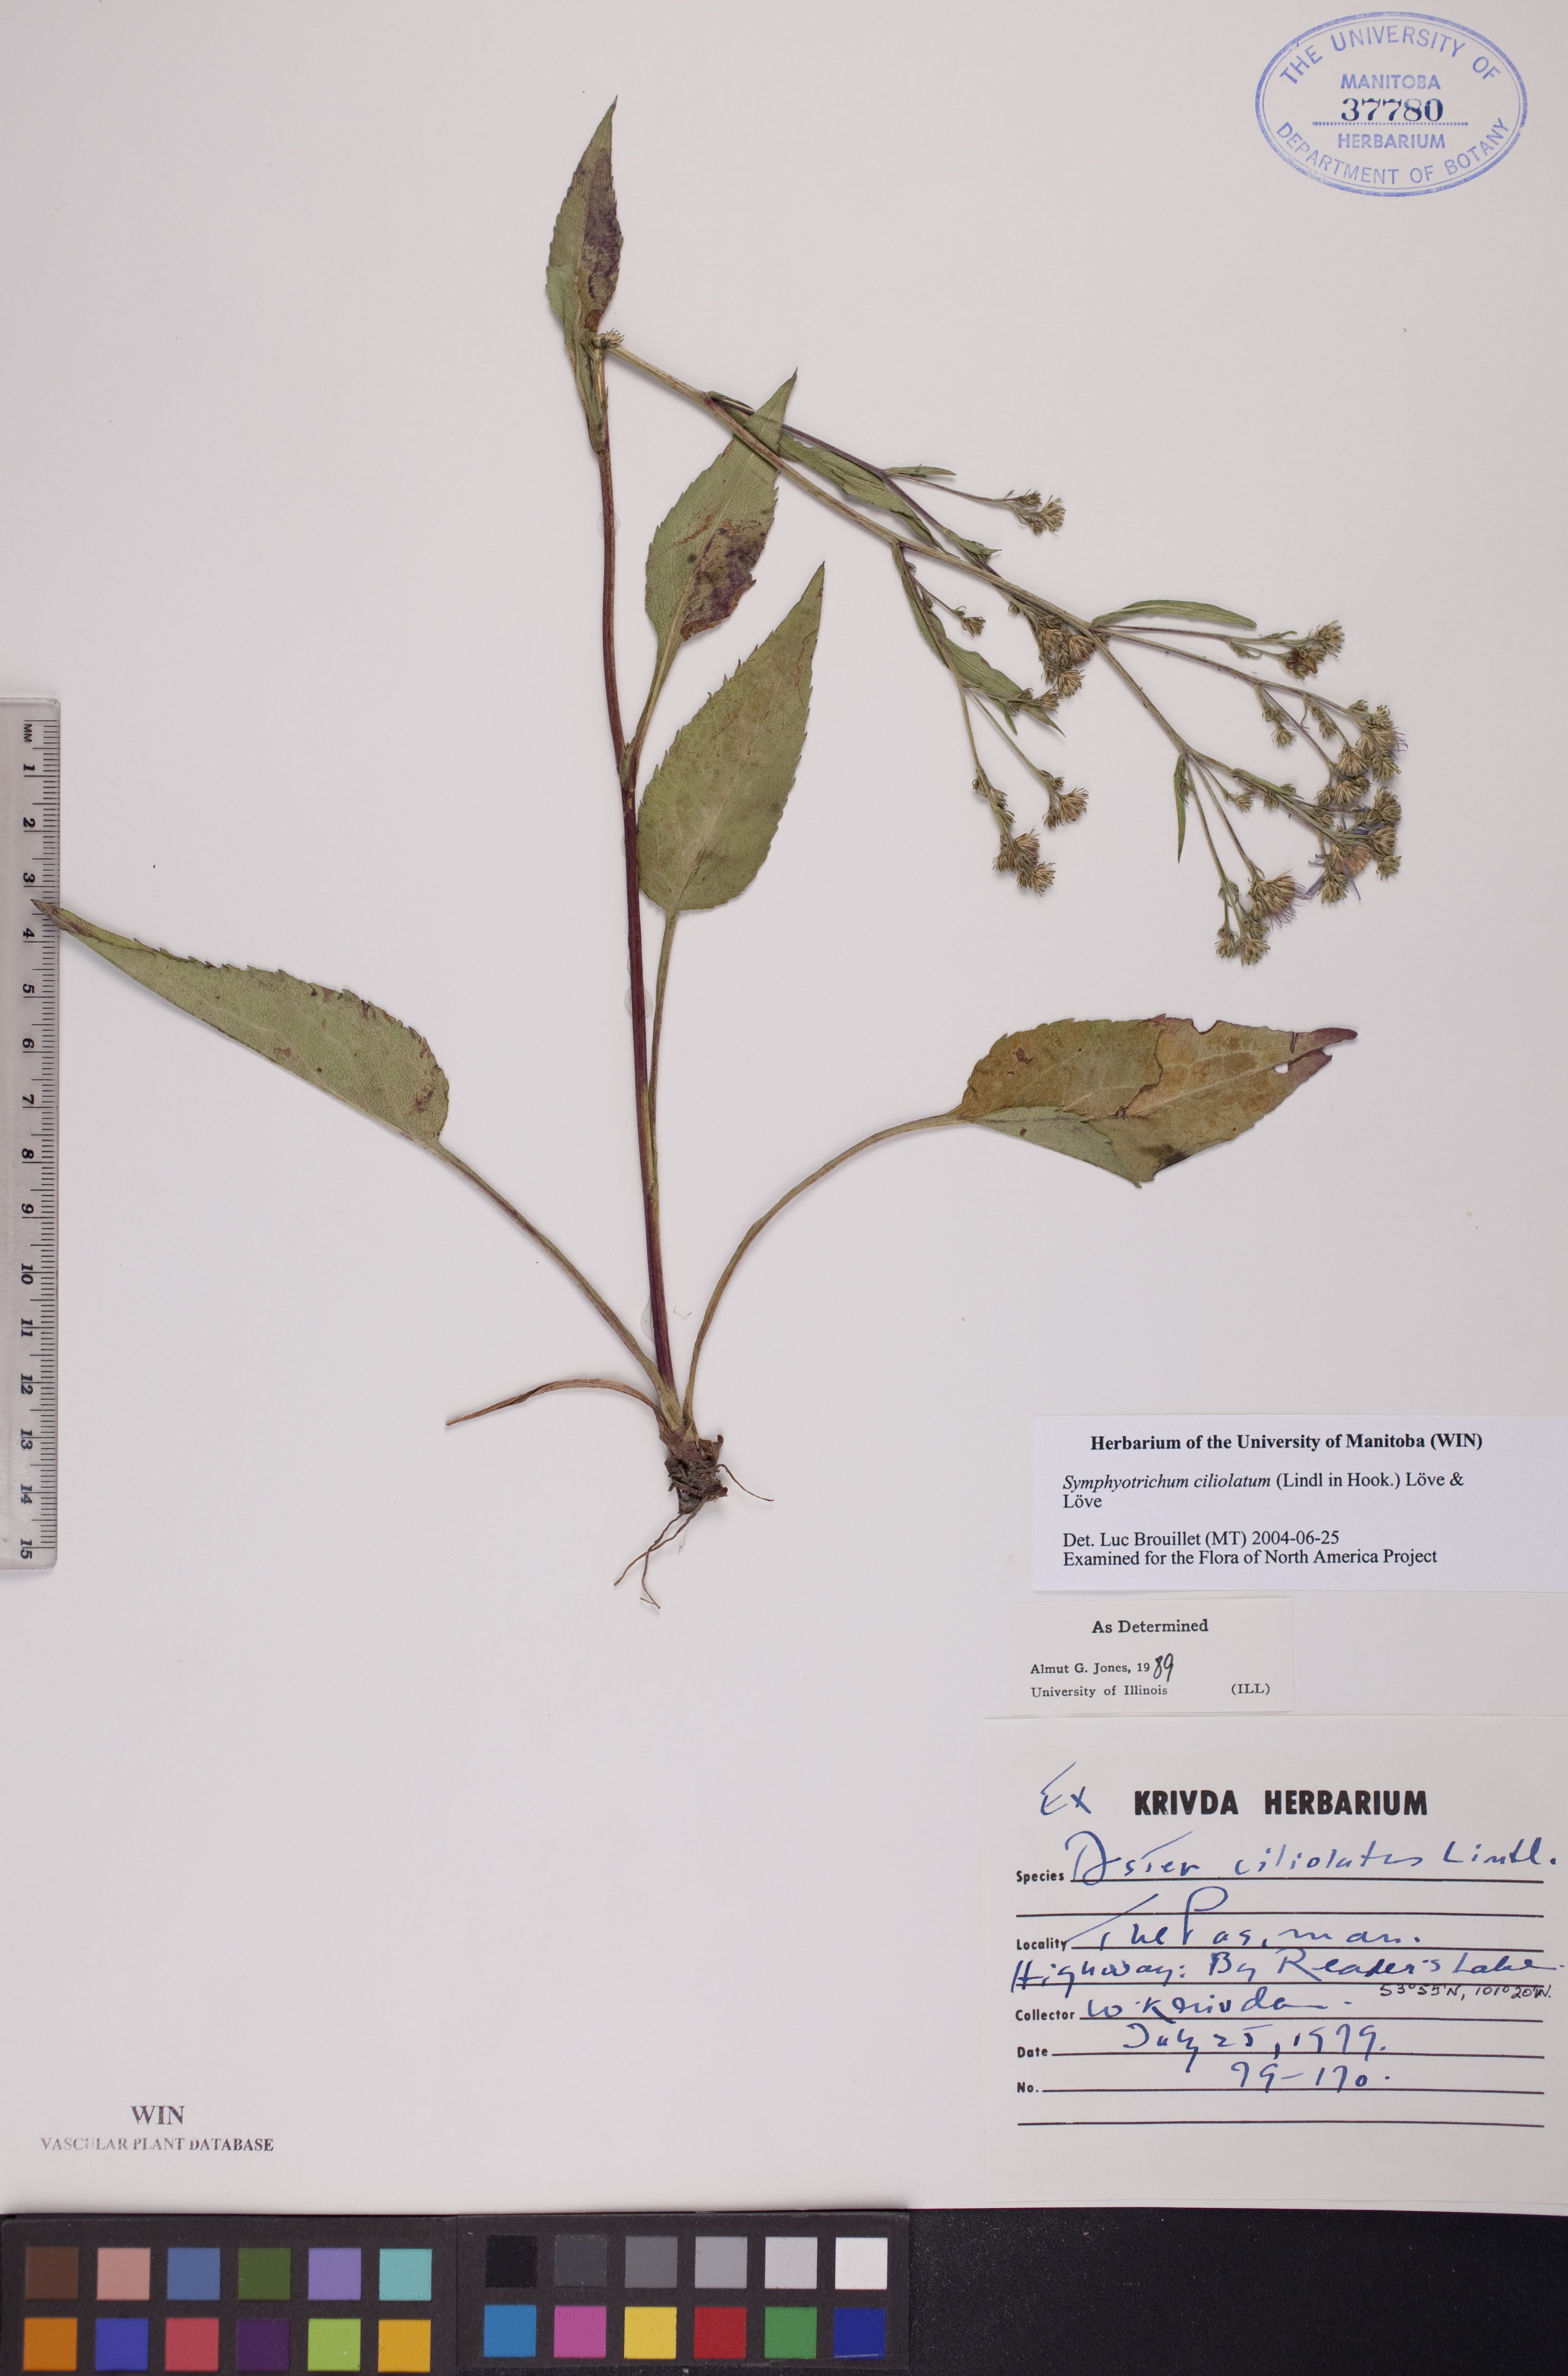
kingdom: Plantae
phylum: Tracheophyta
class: Magnoliopsida
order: Asterales
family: Asteraceae
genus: Symphyotrichum
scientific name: Symphyotrichum ciliolatum
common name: Fringed blue aster
